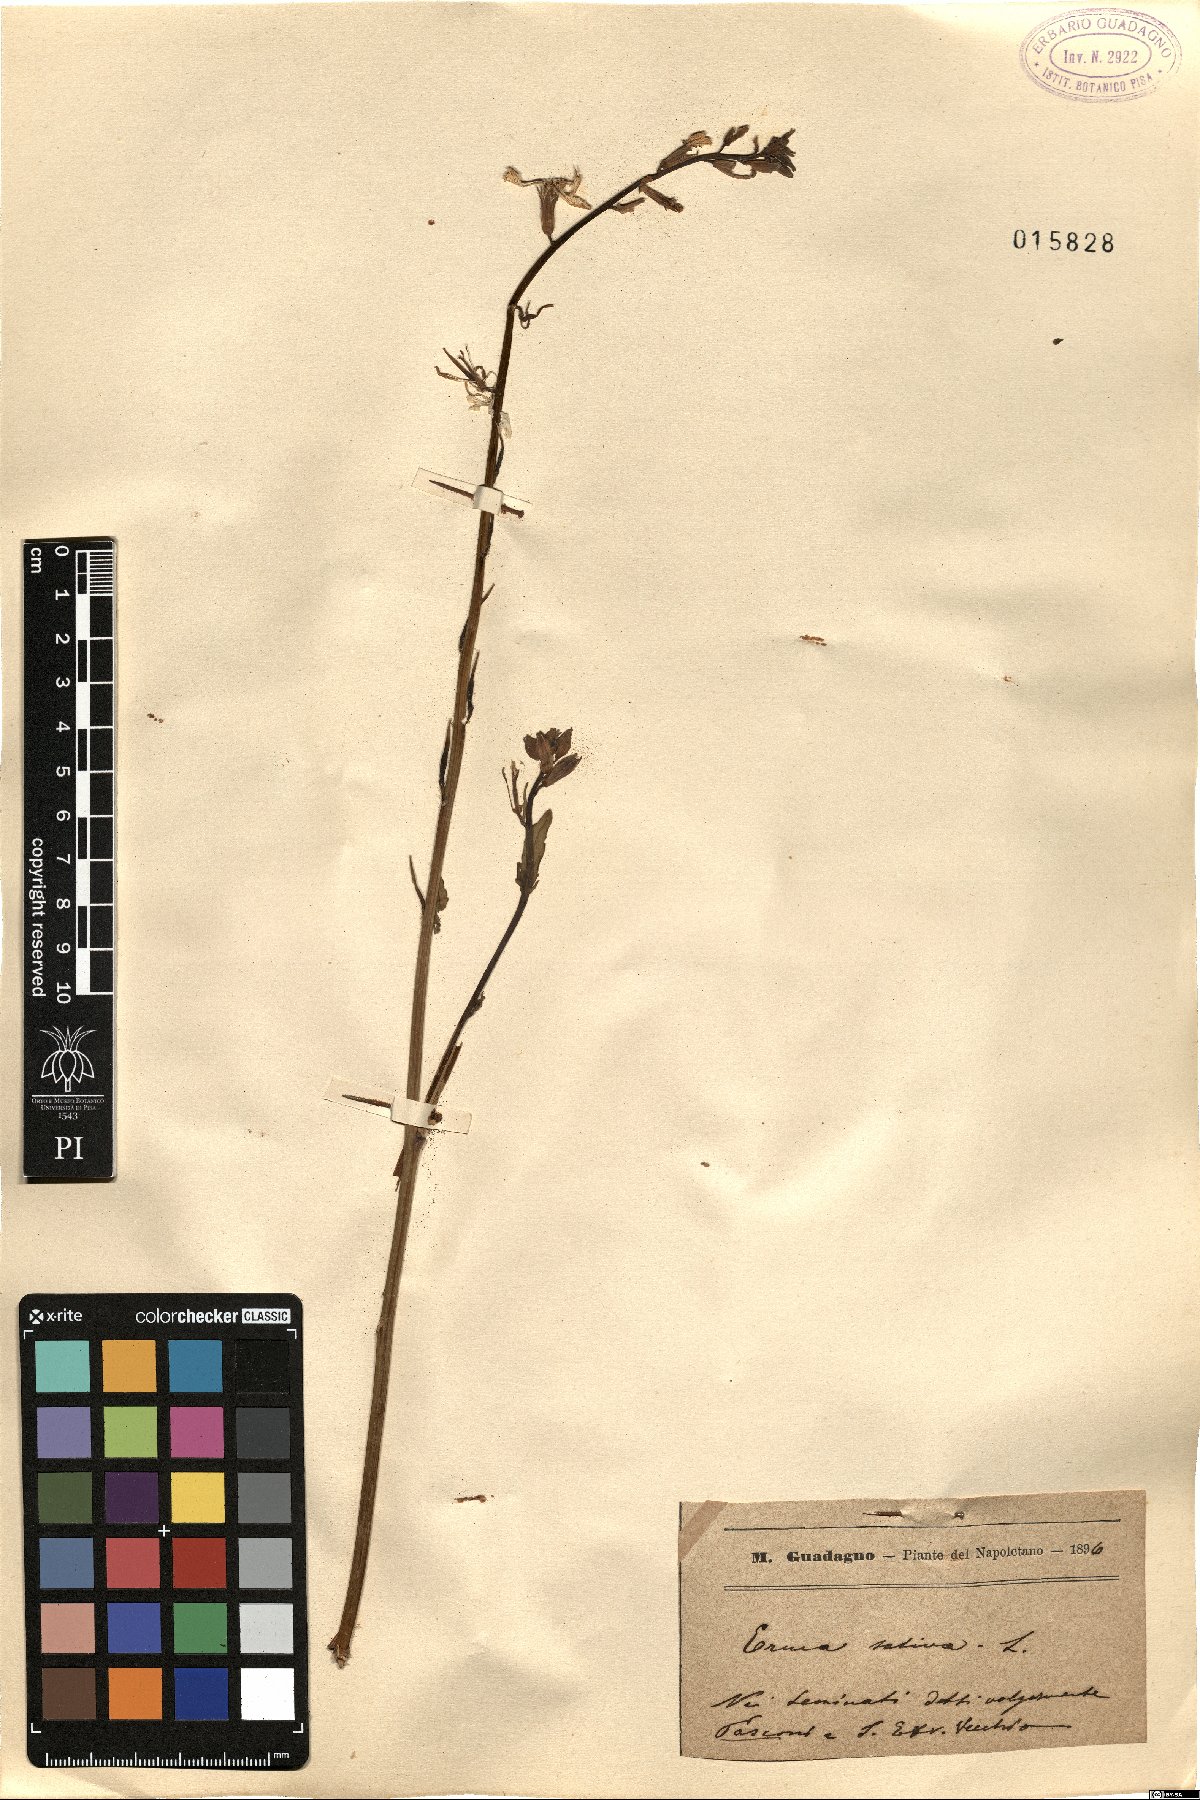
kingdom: Plantae
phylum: Tracheophyta
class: Magnoliopsida
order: Brassicales
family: Brassicaceae
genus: Eruca
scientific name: Eruca vesicaria
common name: Garden rocket
